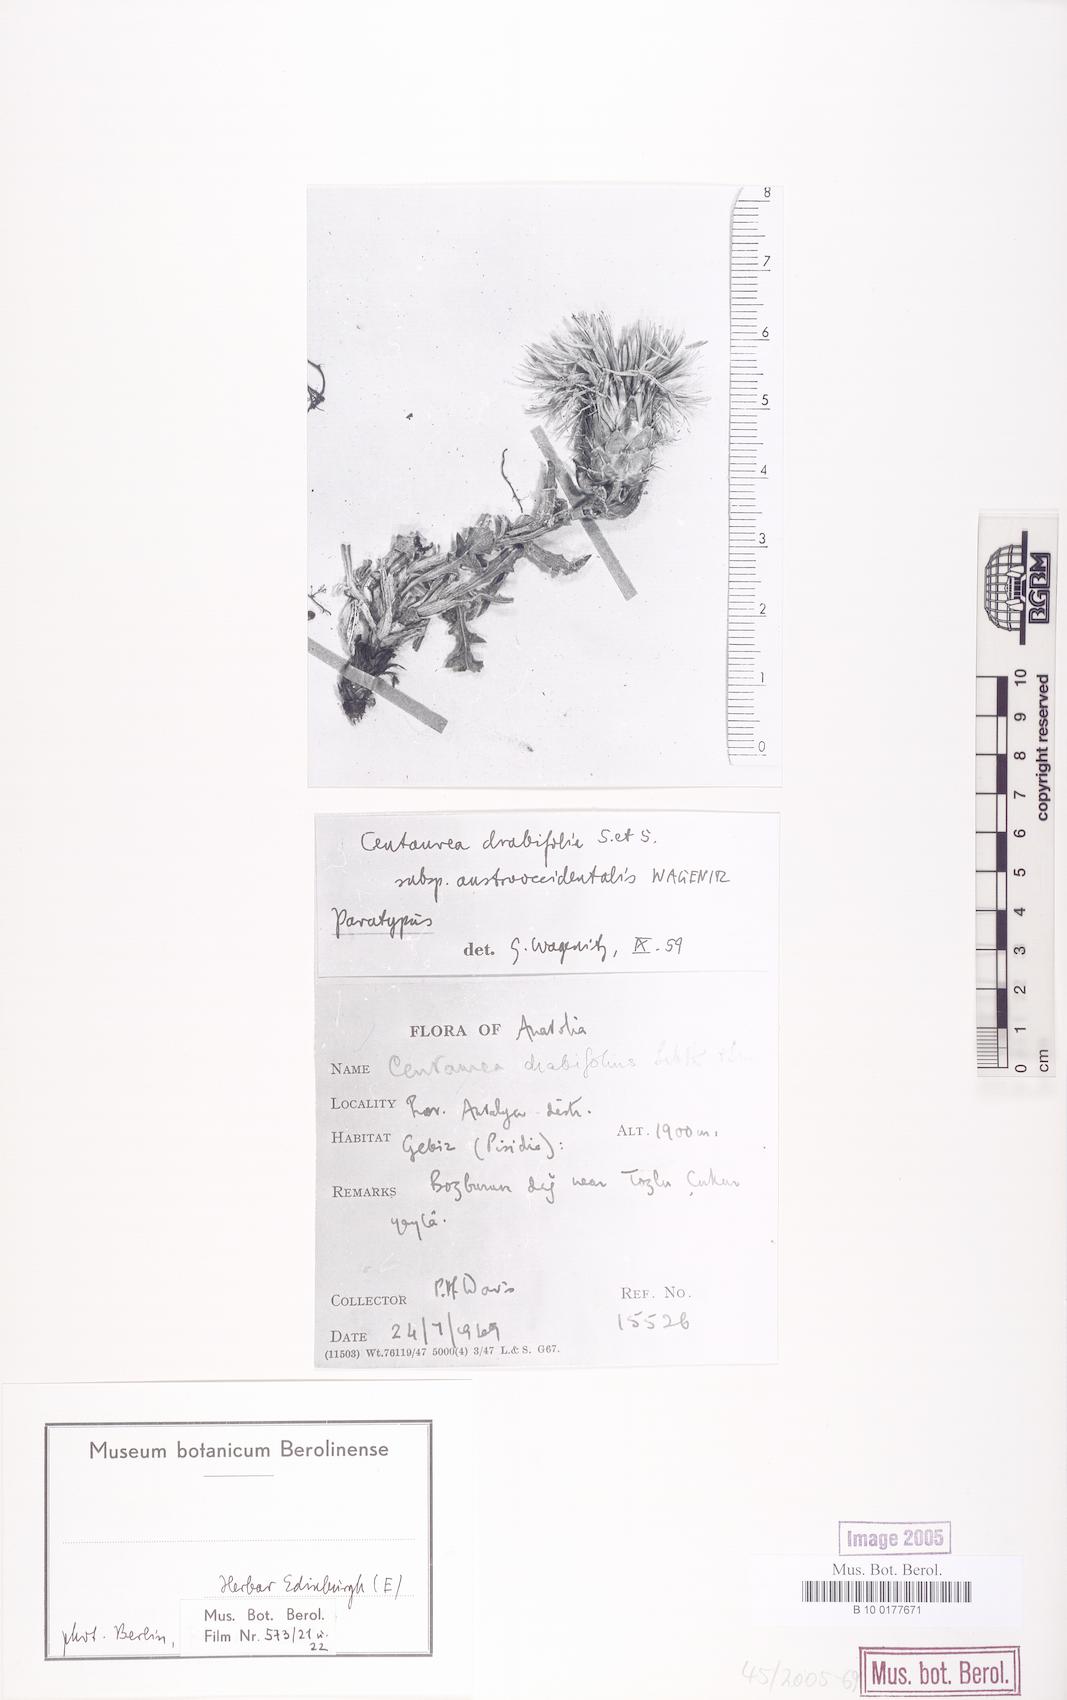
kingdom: Plantae
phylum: Tracheophyta
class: Magnoliopsida
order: Asterales
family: Asteraceae
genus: Centaurea
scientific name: Centaurea drabifolia
